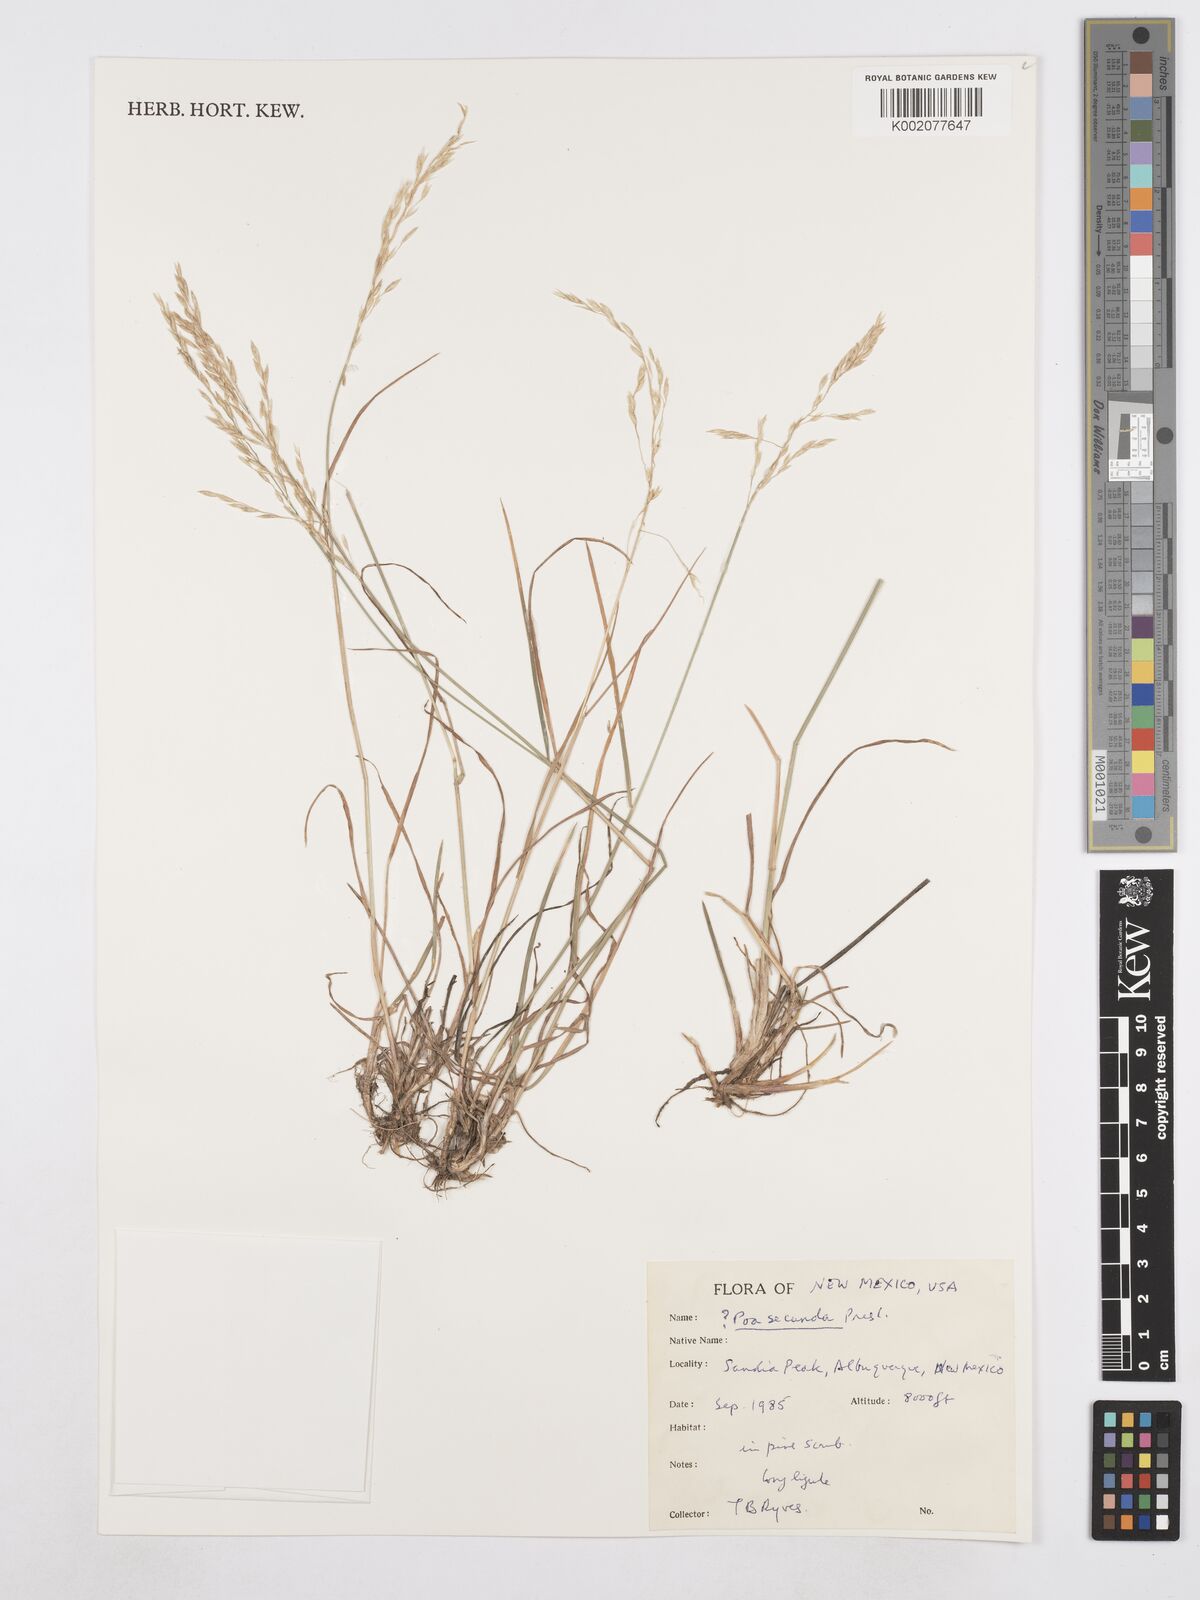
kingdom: Plantae
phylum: Tracheophyta
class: Liliopsida
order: Poales
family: Poaceae
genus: Poa
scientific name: Poa secunda
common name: Sandberg bluegrass
